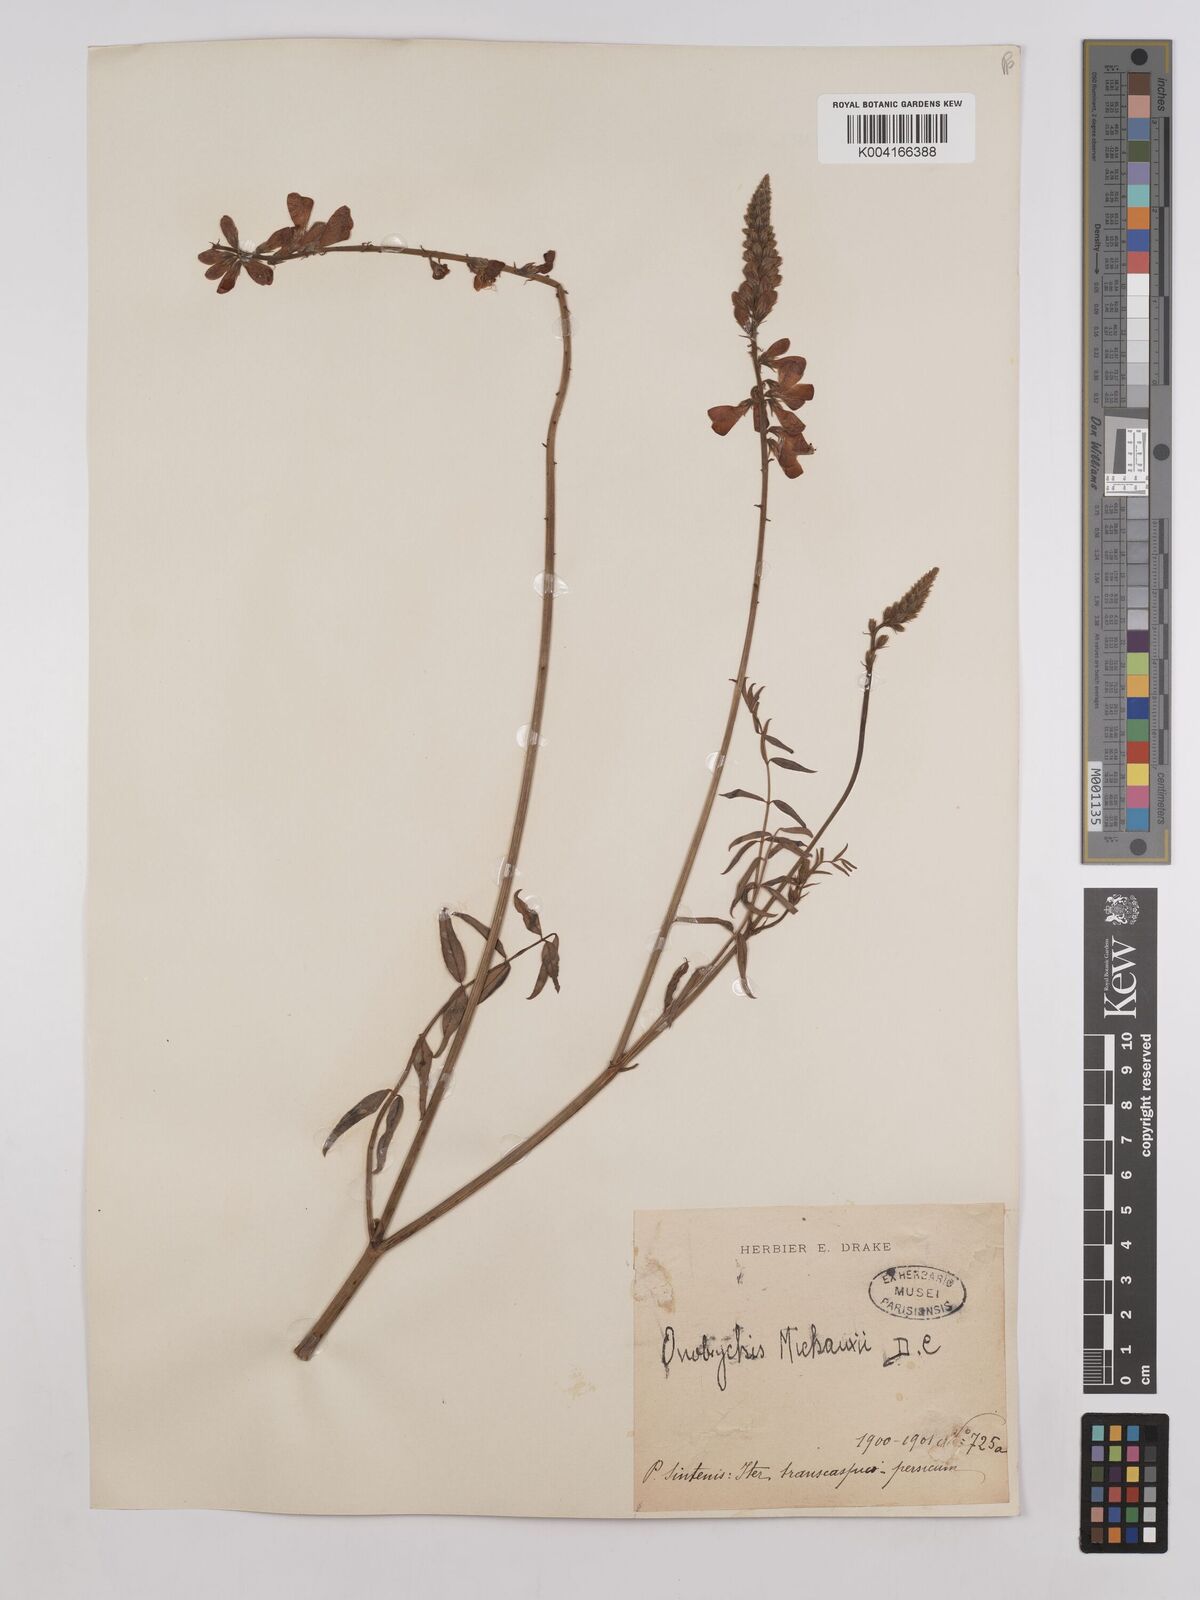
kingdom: Plantae
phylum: Tracheophyta
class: Magnoliopsida
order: Fabales
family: Fabaceae
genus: Onobrychis
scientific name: Onobrychis michauxii
